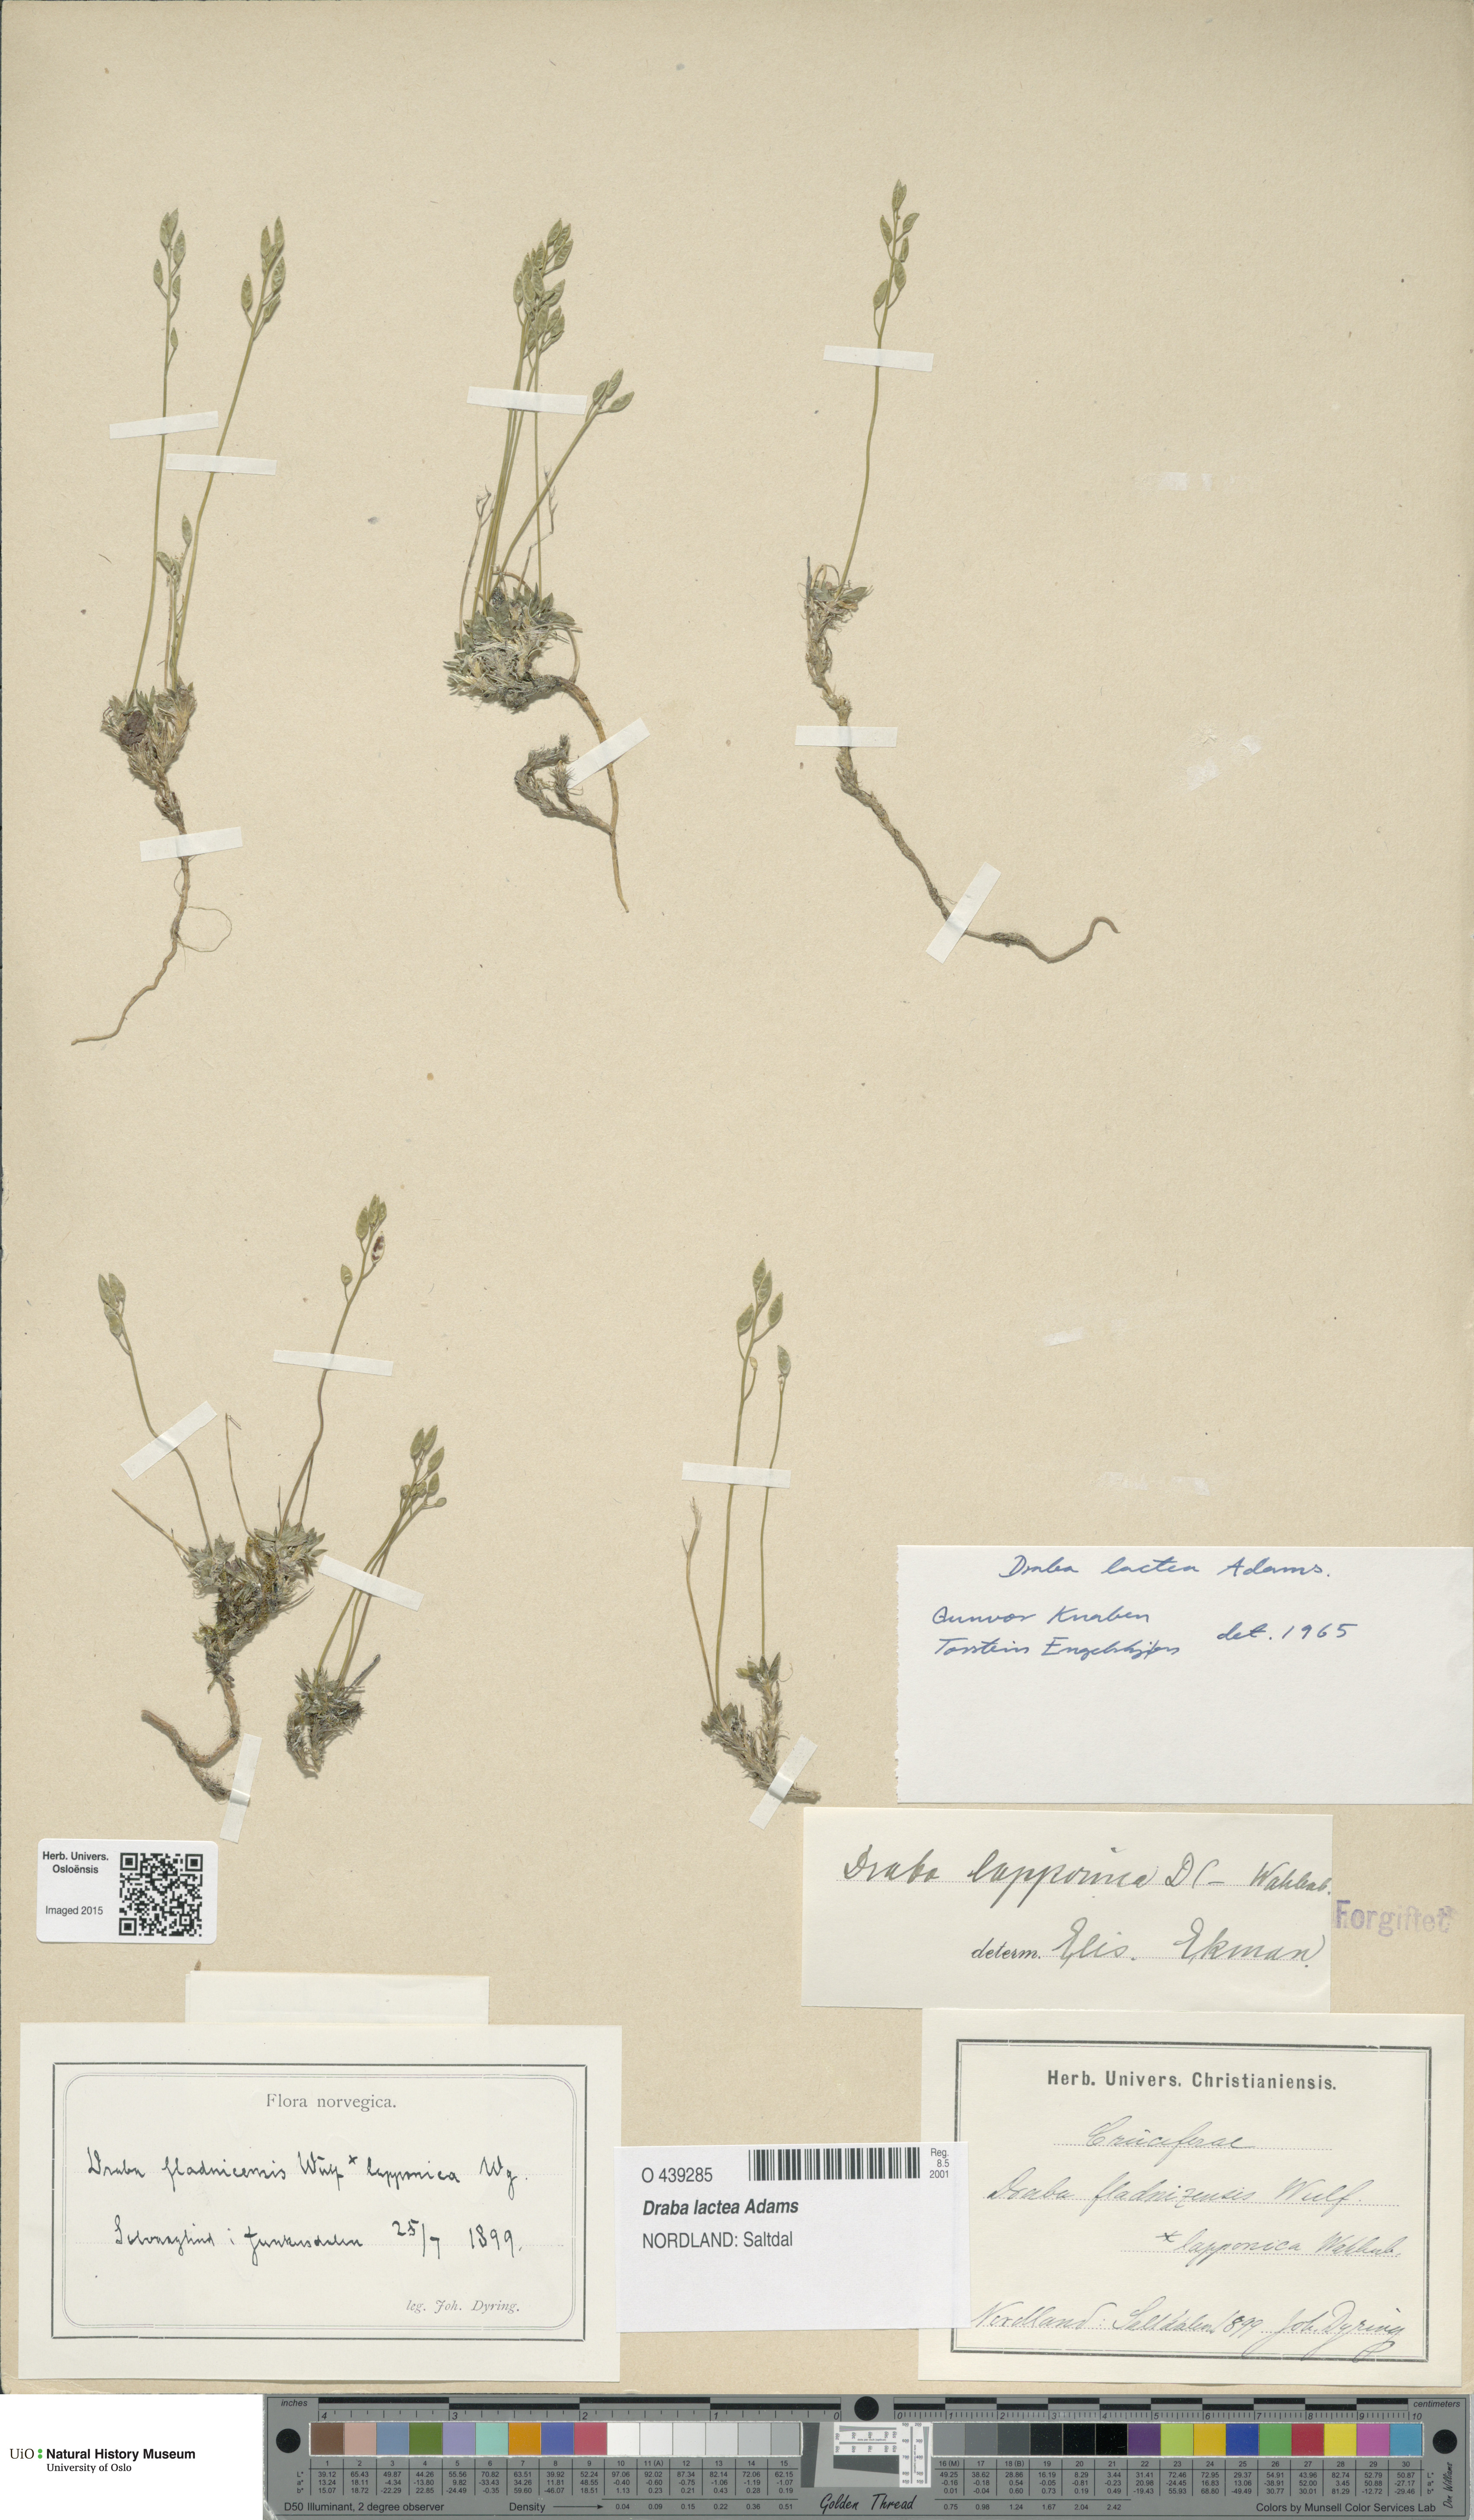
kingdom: Plantae
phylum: Tracheophyta
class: Magnoliopsida
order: Brassicales
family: Brassicaceae
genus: Draba
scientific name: Draba lactea
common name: Milky draba
